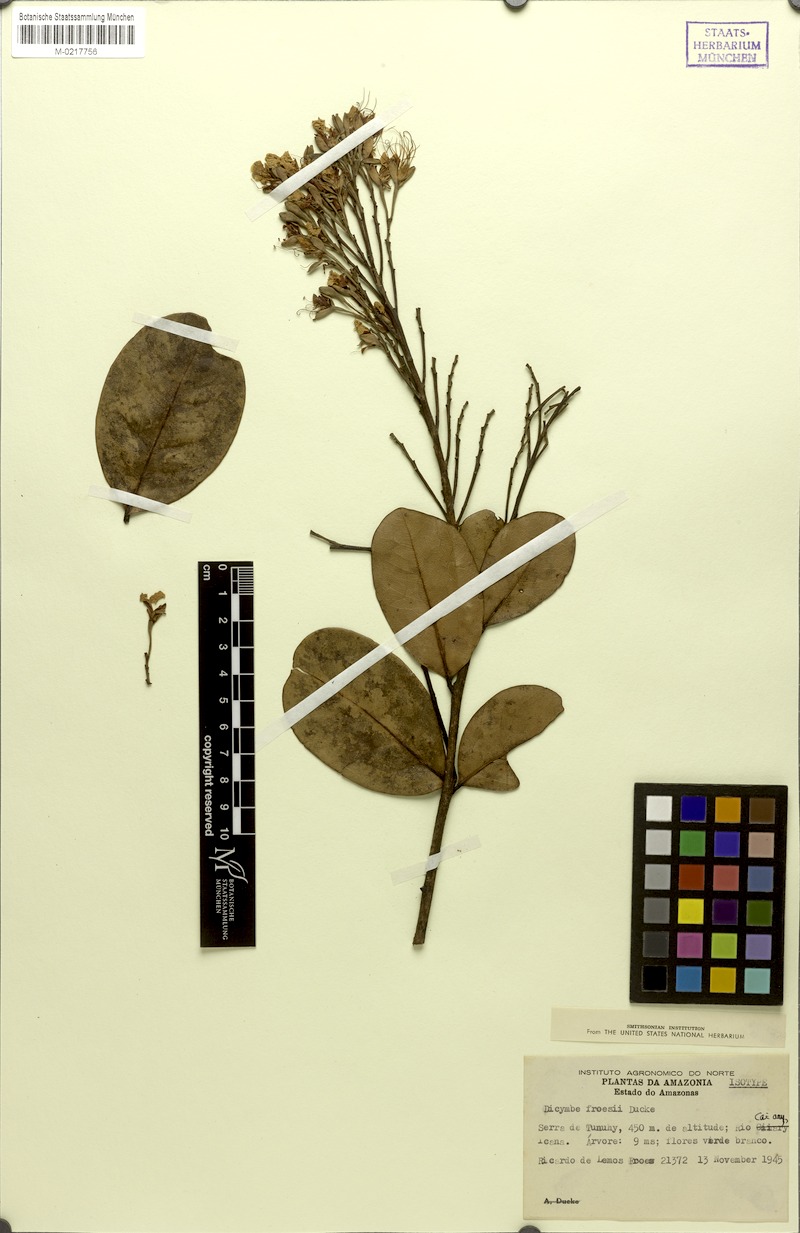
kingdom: Plantae
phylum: Tracheophyta
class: Magnoliopsida
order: Fabales
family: Fabaceae
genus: Dicymbe
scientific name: Dicymbe froesii
